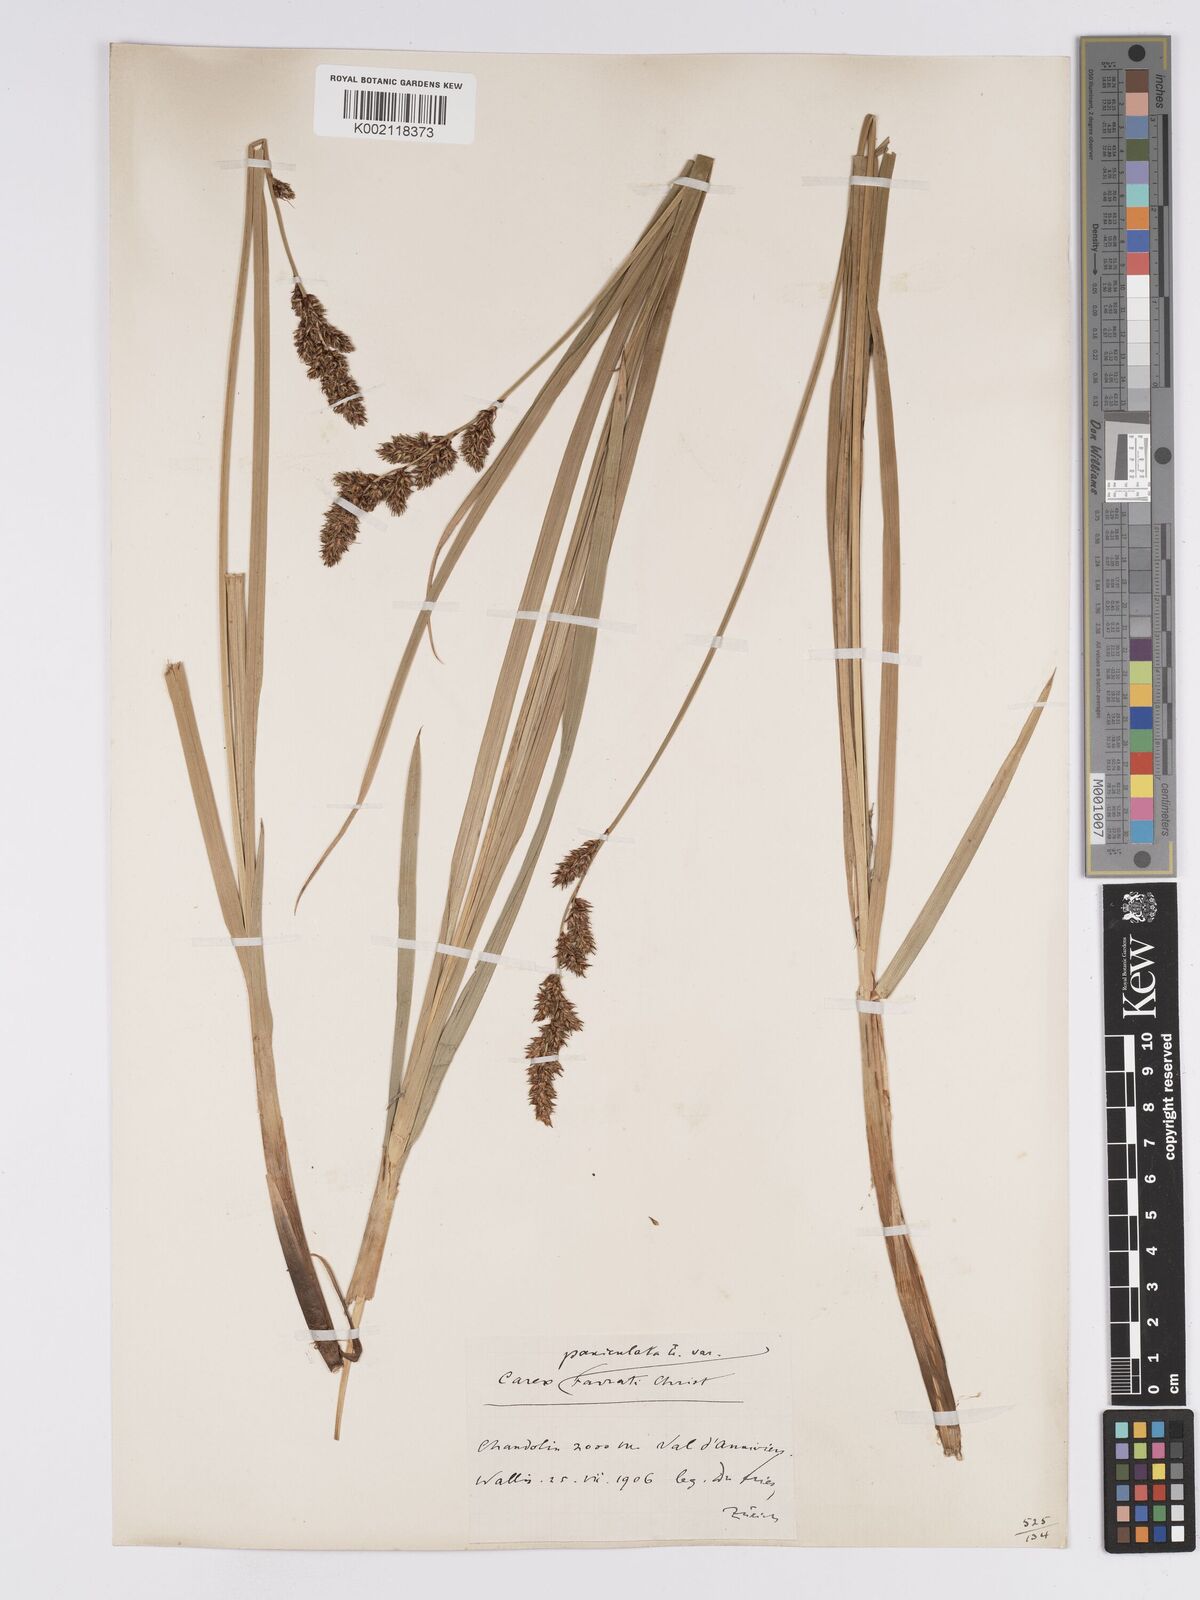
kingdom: Plantae
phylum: Tracheophyta
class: Liliopsida
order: Poales
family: Cyperaceae
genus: Carex
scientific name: Carex paniculata
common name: Greater tussock-sedge
